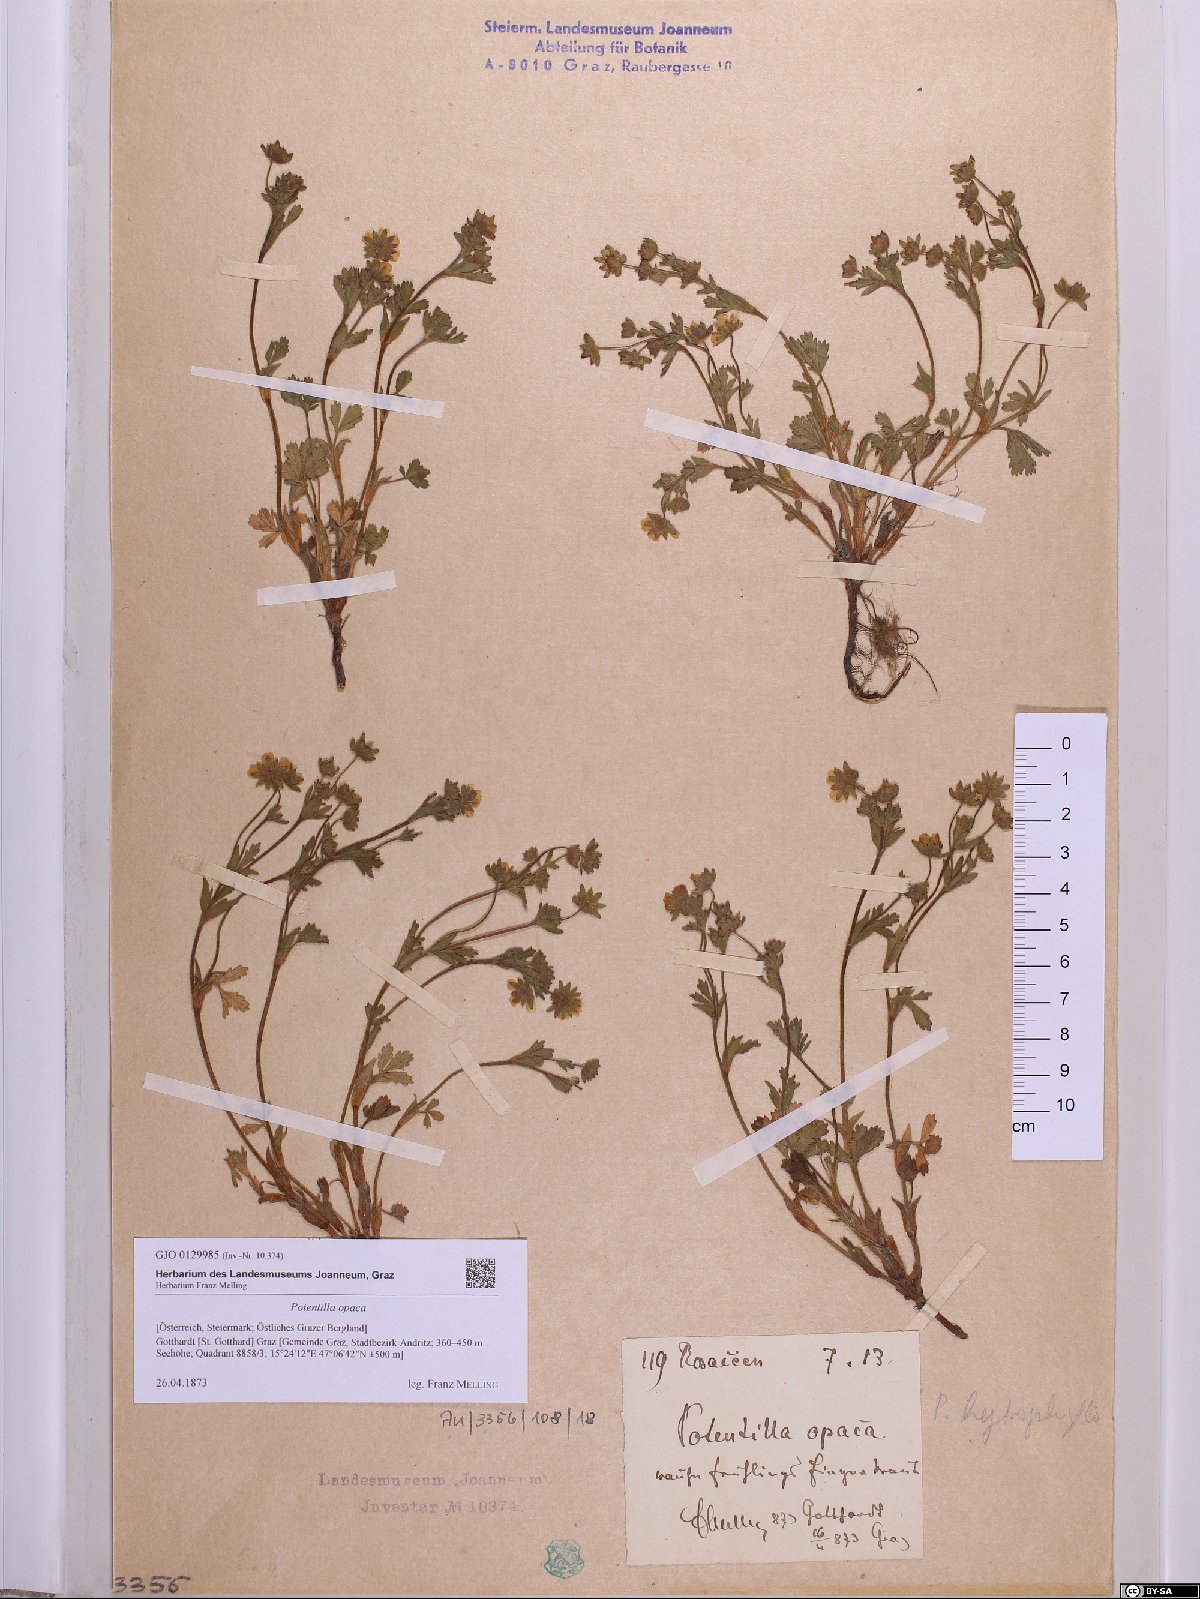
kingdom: Plantae
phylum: Tracheophyta
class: Magnoliopsida
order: Rosales
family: Rosaceae
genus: Potentilla
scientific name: Potentilla
